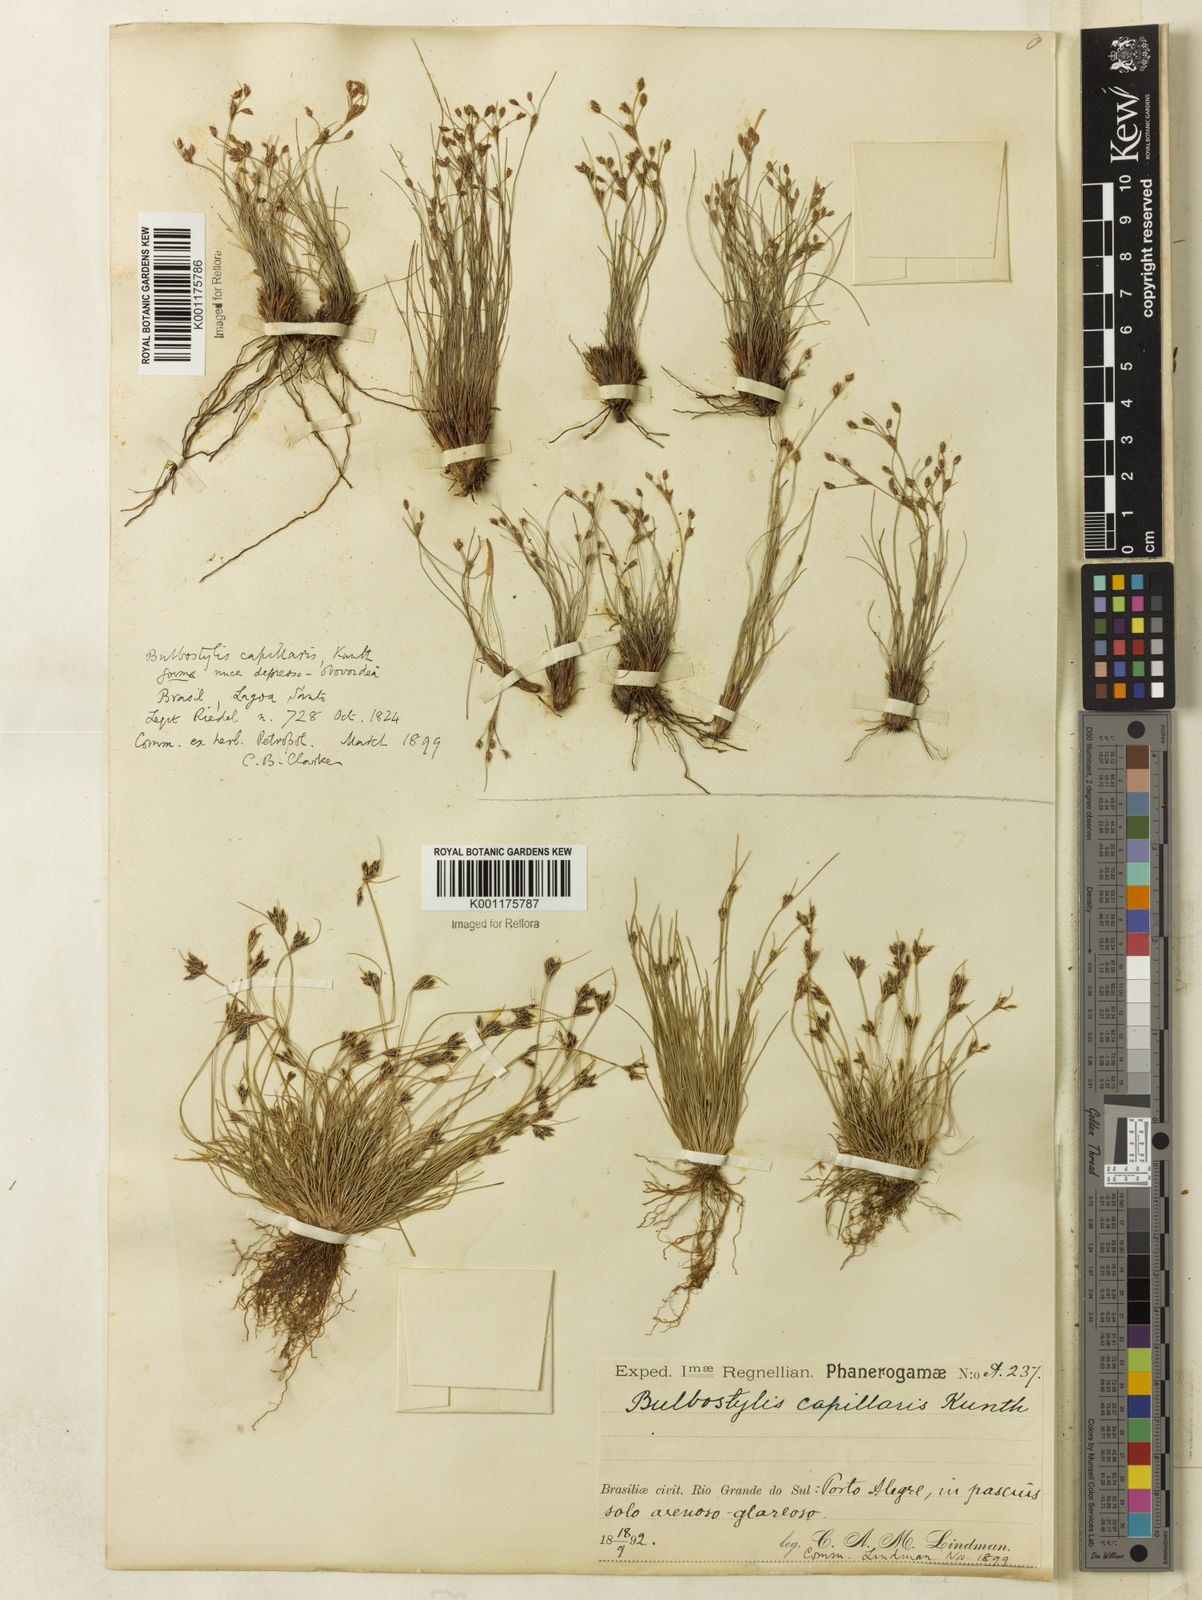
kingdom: Plantae
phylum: Tracheophyta
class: Liliopsida
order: Poales
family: Cyperaceae
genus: Bulbostylis
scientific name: Bulbostylis capillaris
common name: Densetuft hairsedge
